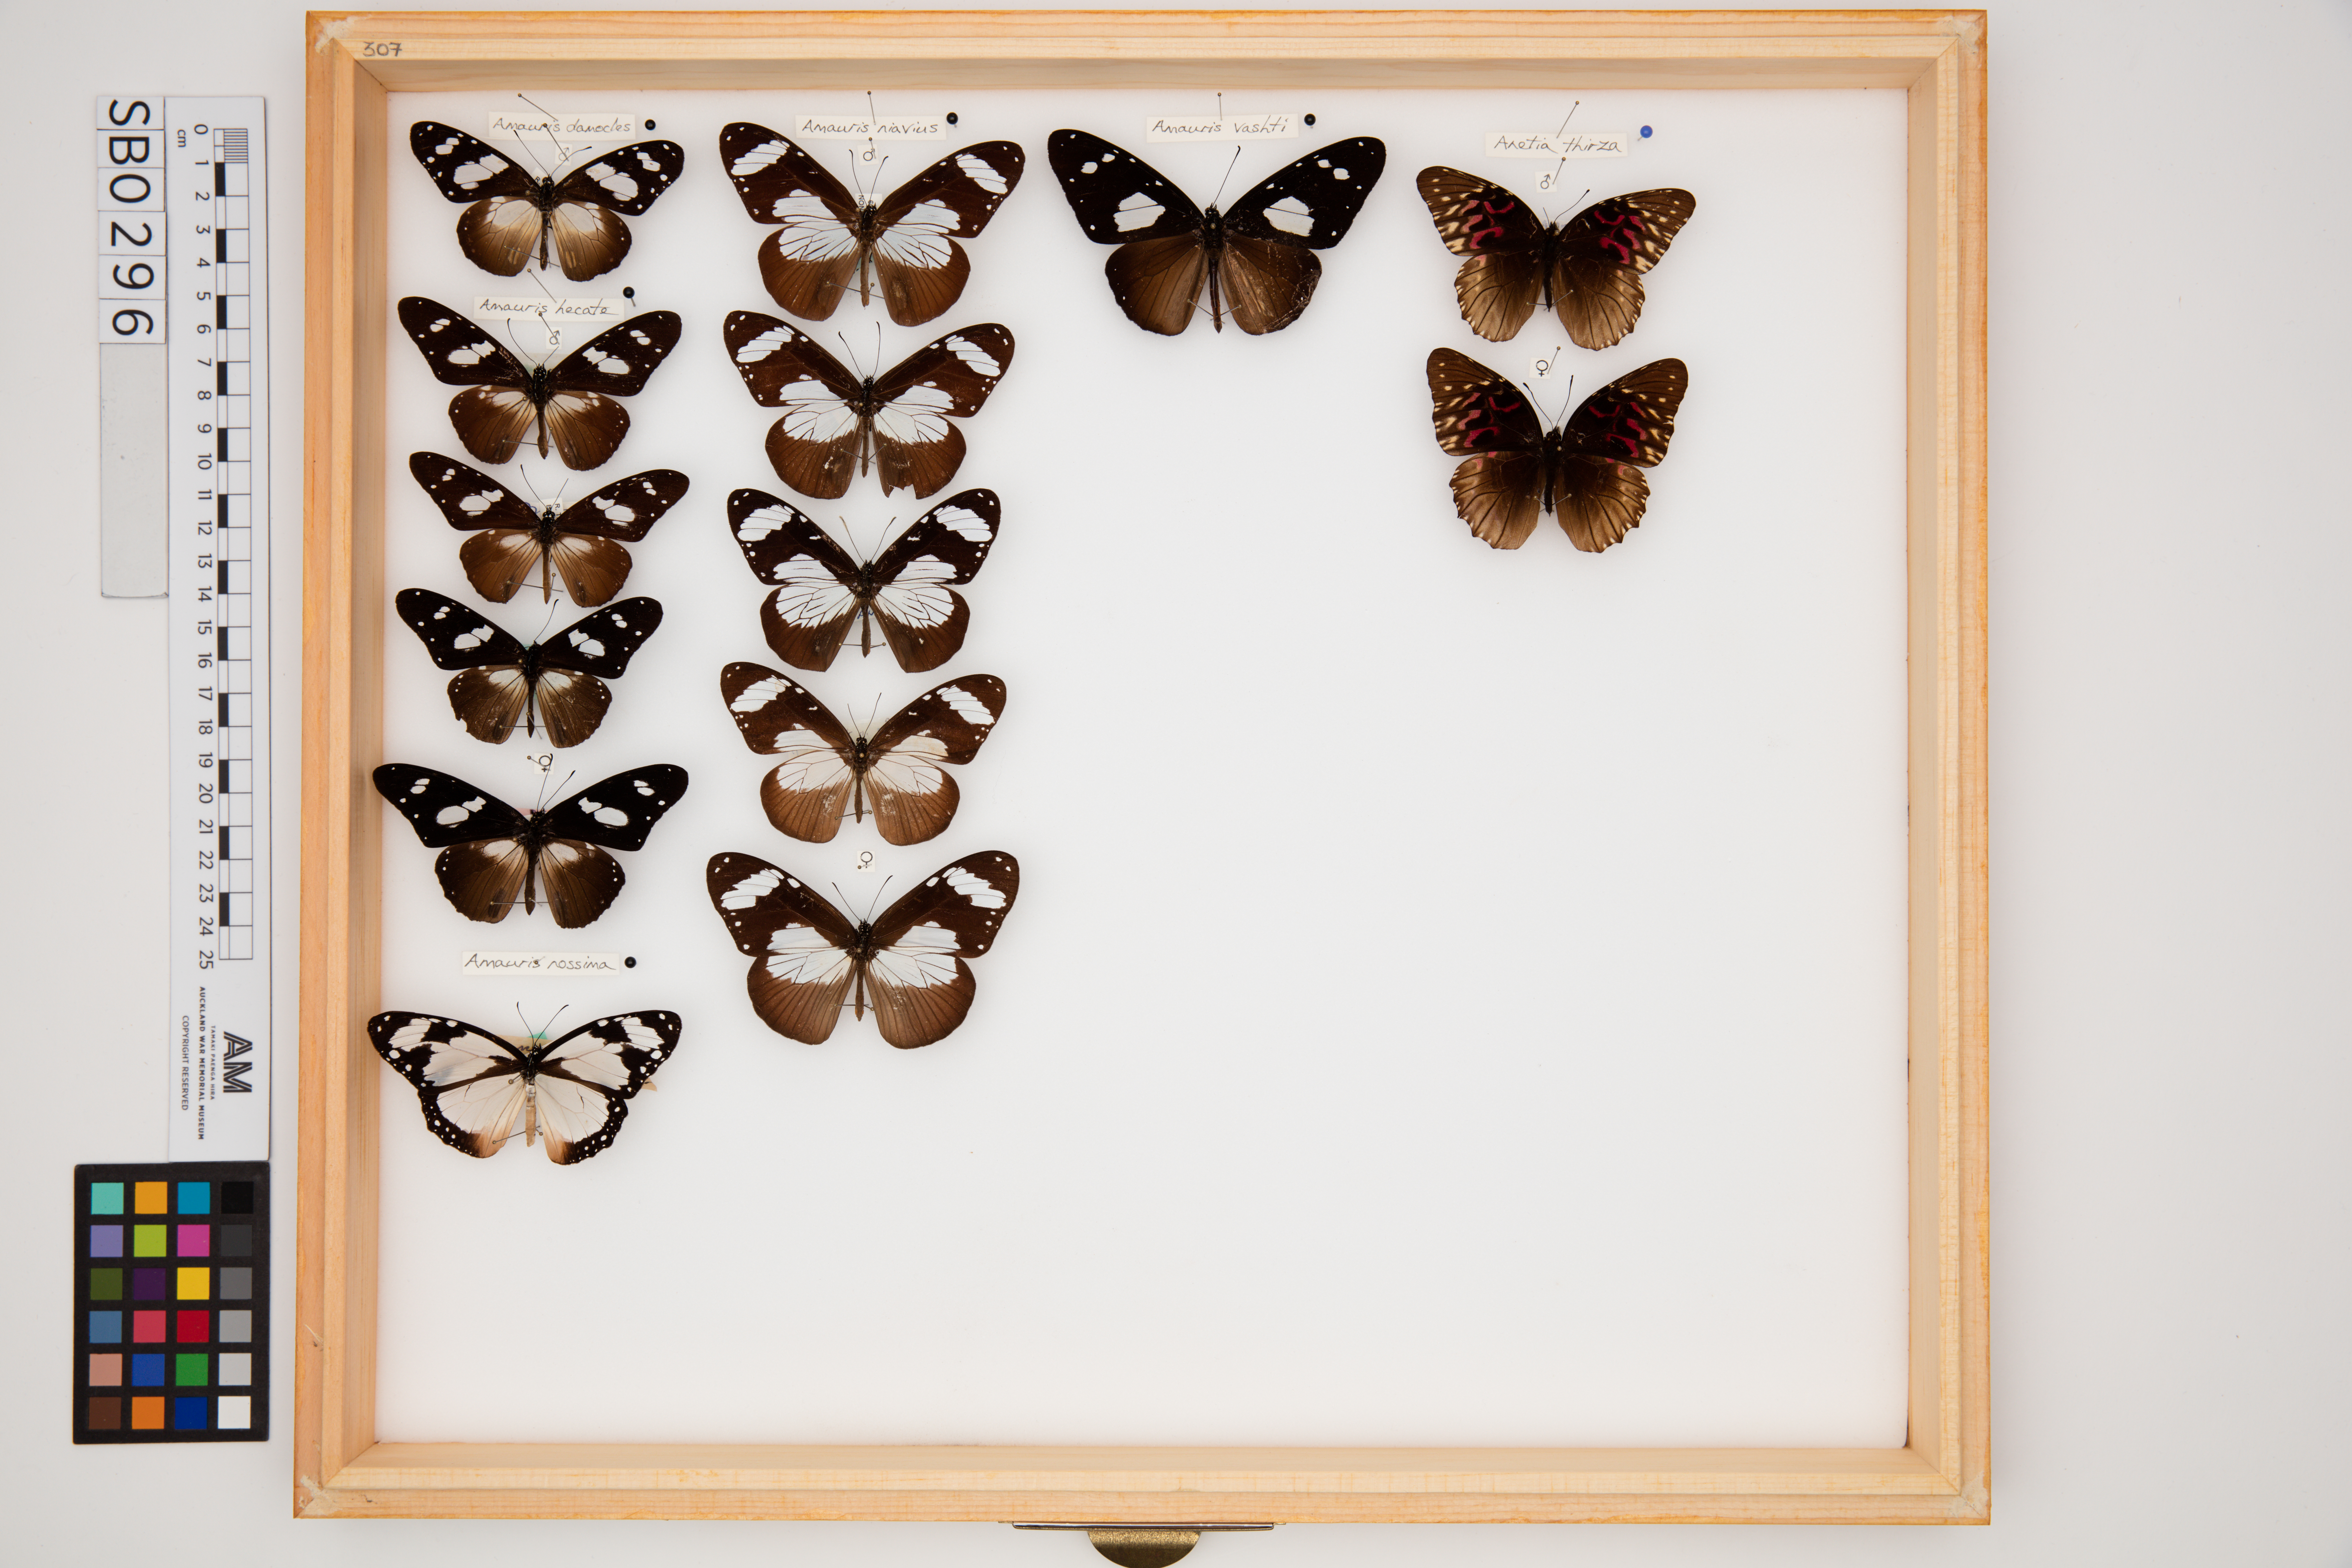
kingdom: Animalia
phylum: Arthropoda
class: Insecta
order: Lepidoptera
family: Nymphalidae
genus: Amauris
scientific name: Amauris hecate
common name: Scarce monk
